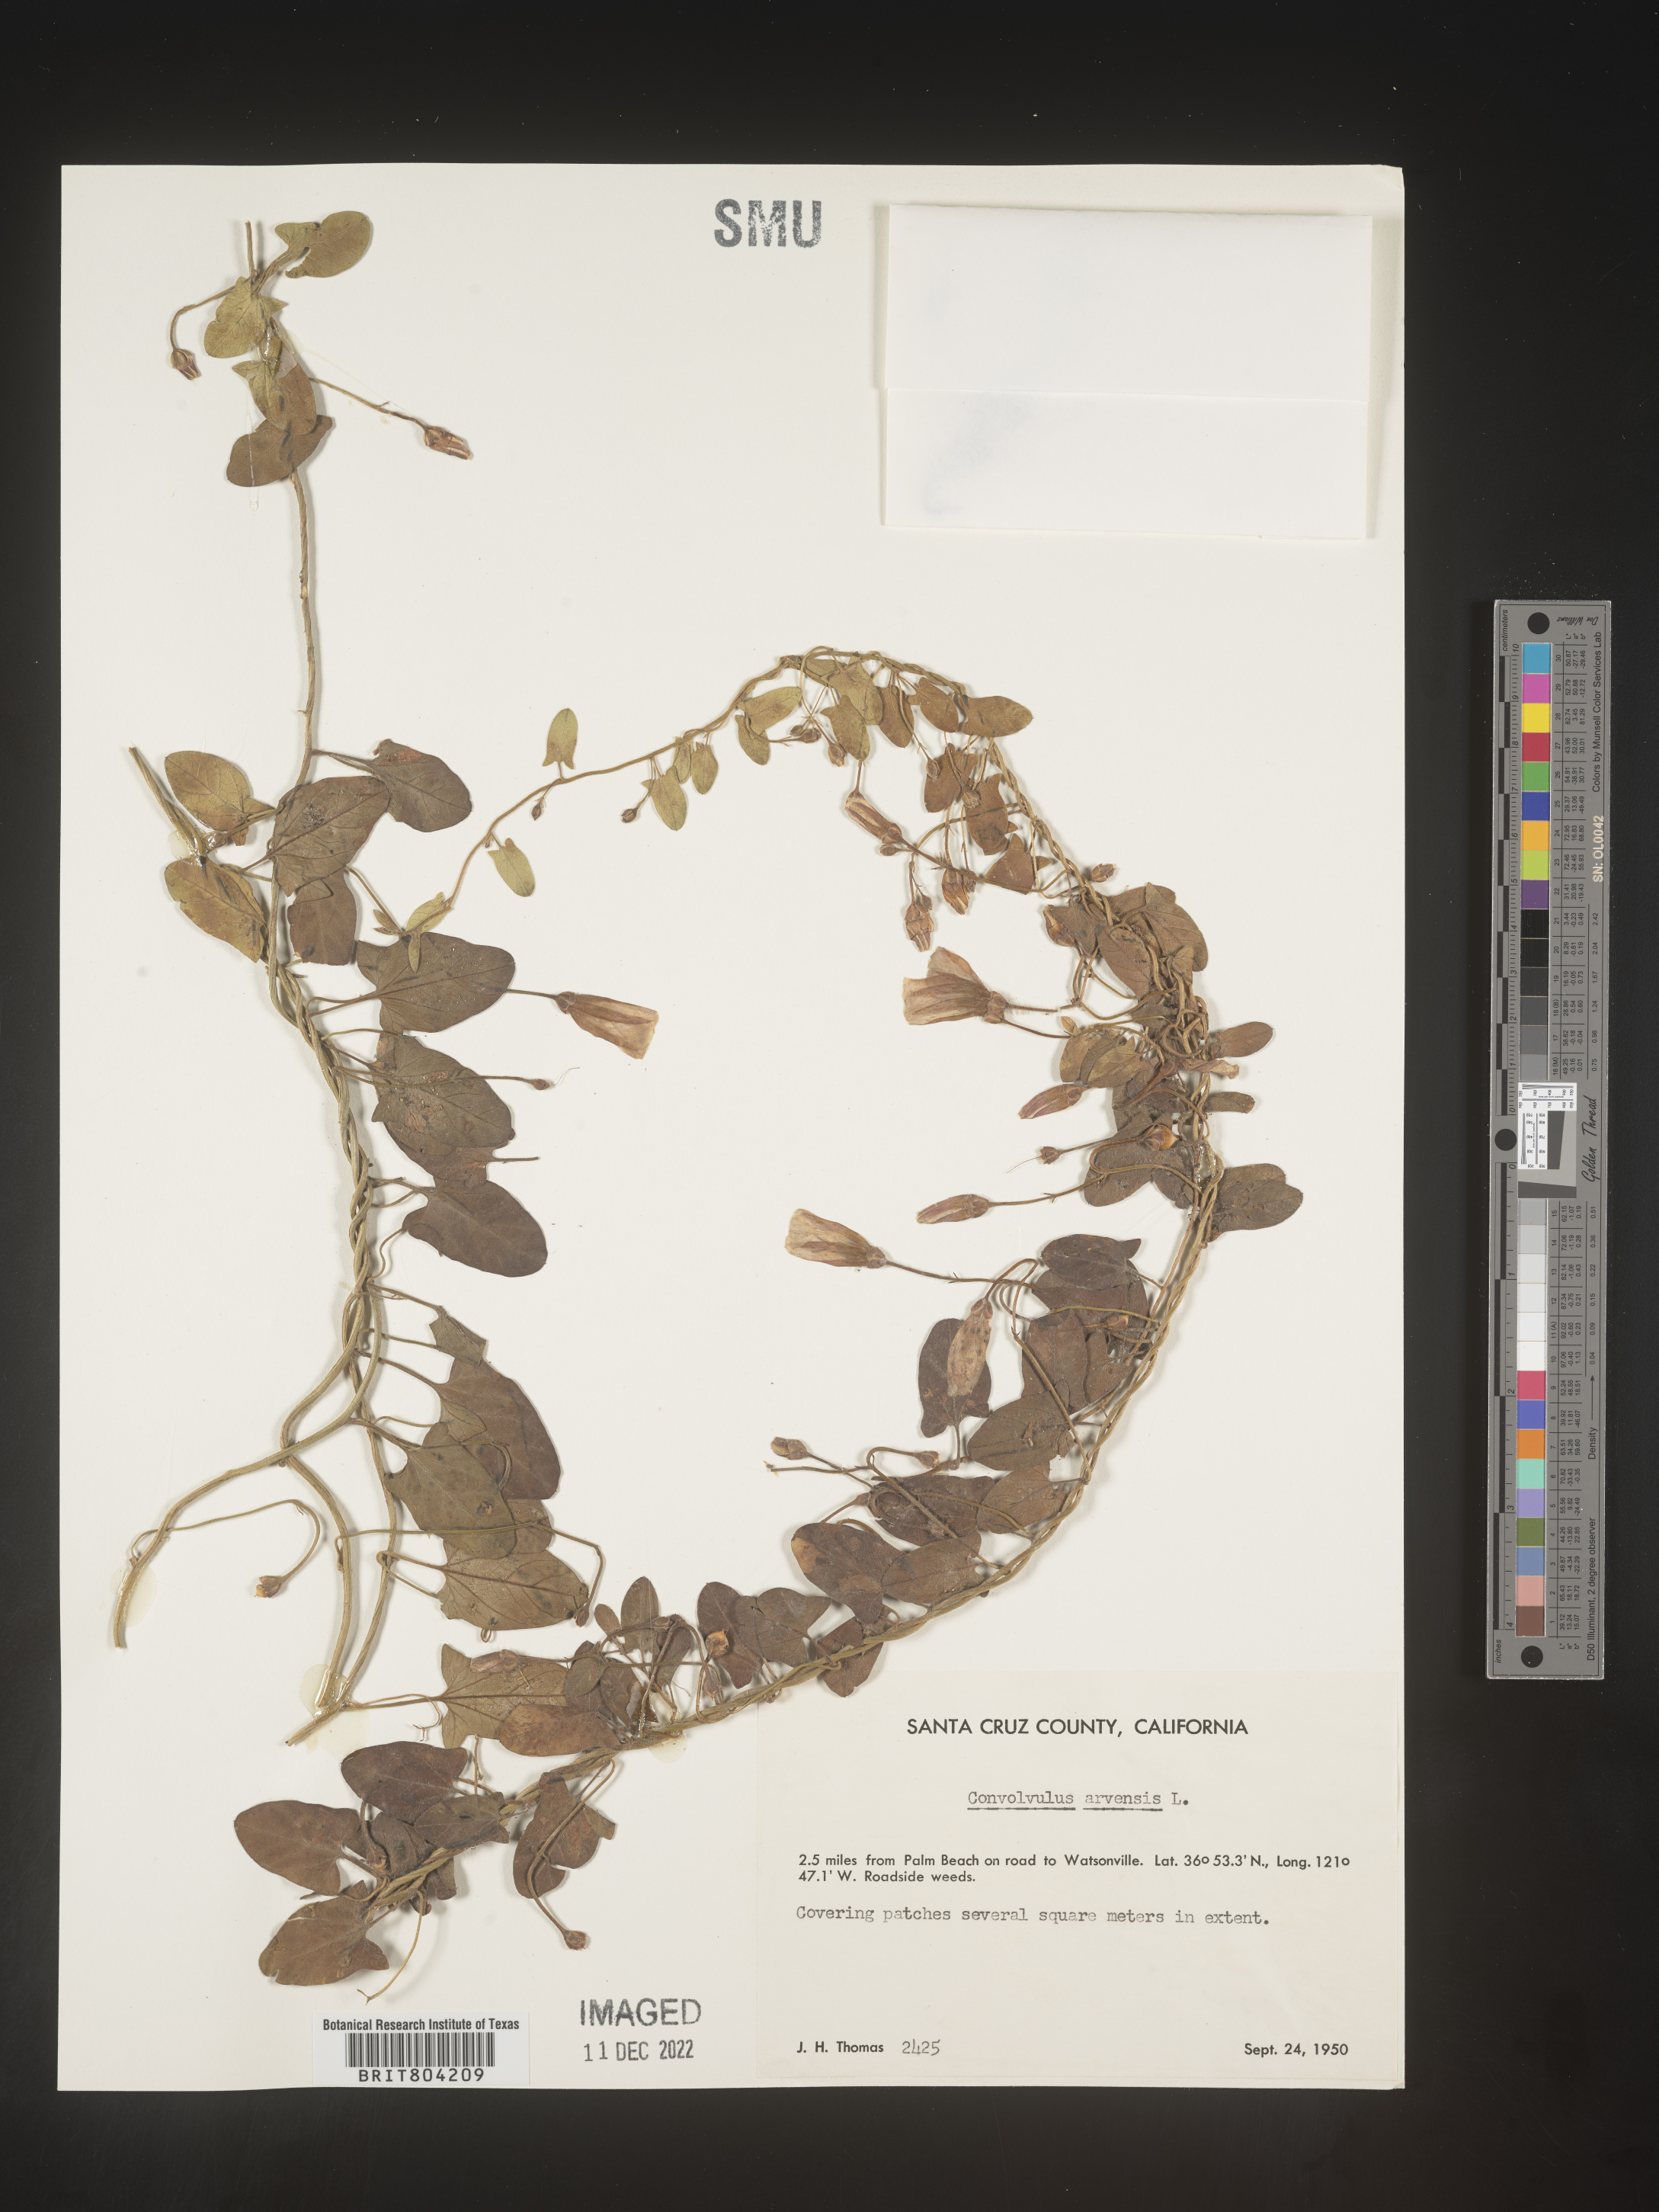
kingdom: Plantae
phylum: Tracheophyta
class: Magnoliopsida
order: Solanales
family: Convolvulaceae
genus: Convolvulus
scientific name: Convolvulus arvensis
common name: Field bindweed
